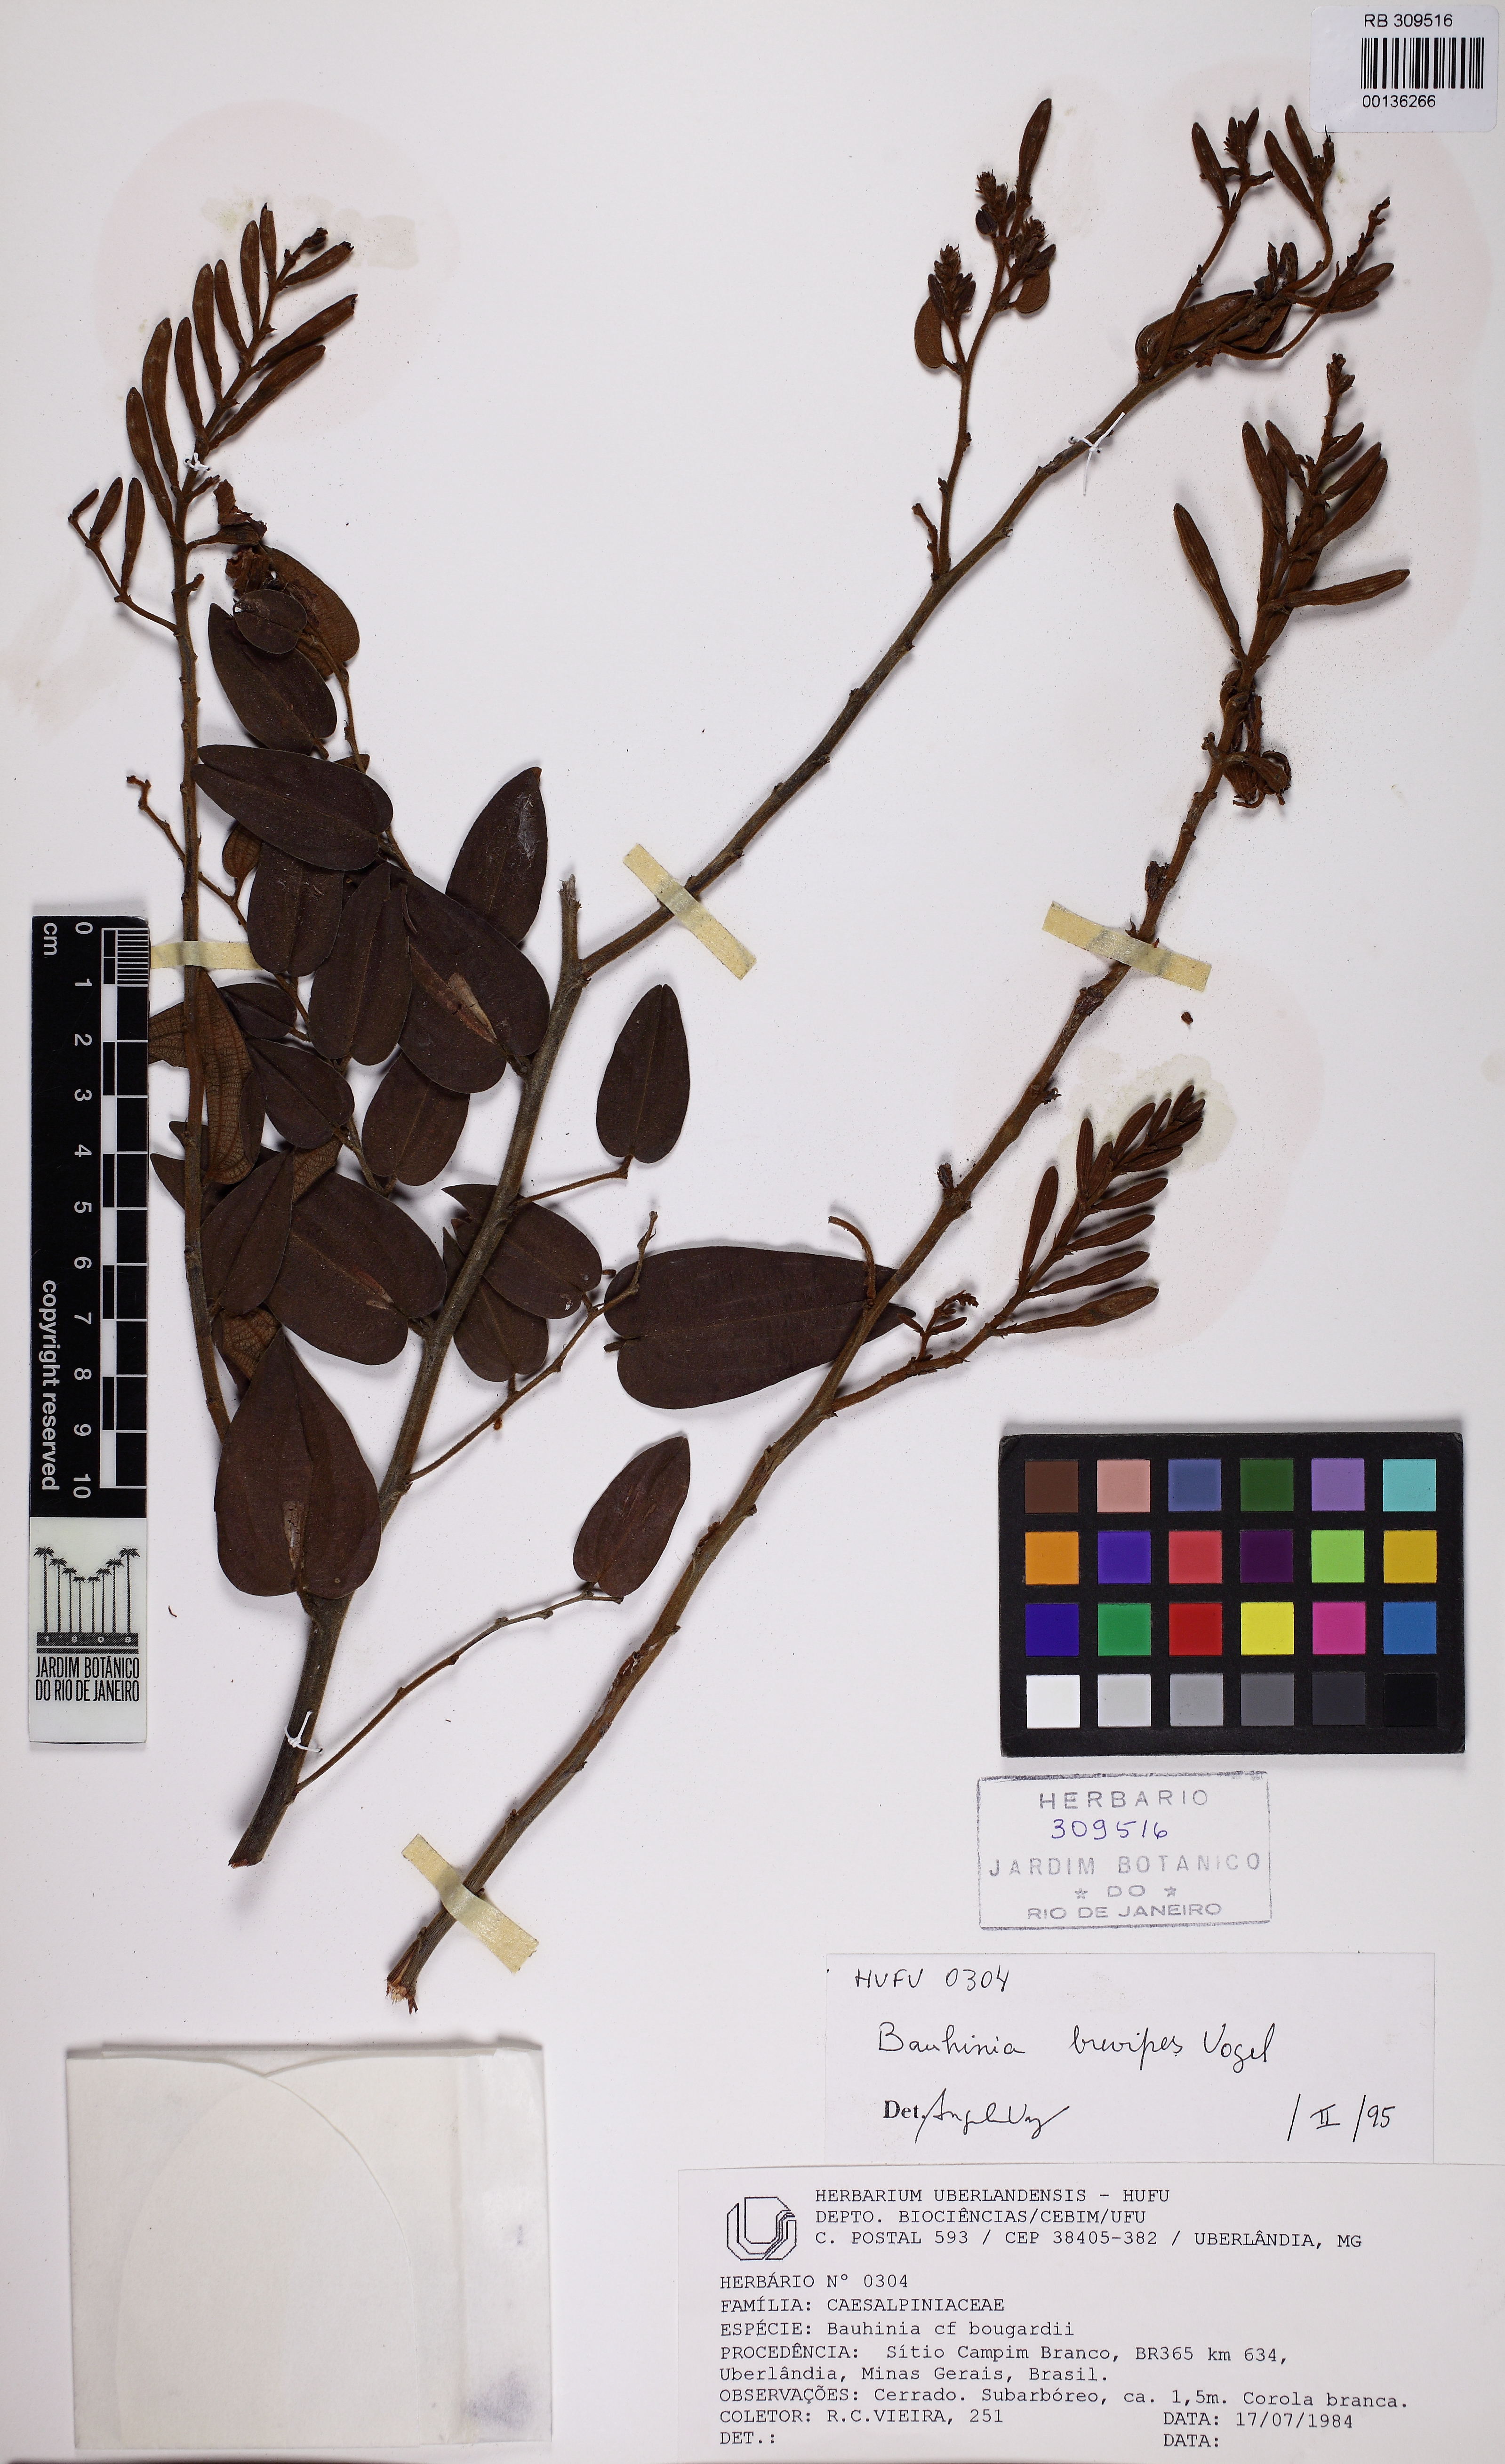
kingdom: Plantae
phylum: Tracheophyta
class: Magnoliopsida
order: Fabales
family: Fabaceae
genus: Bauhinia
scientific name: Bauhinia brevipes
